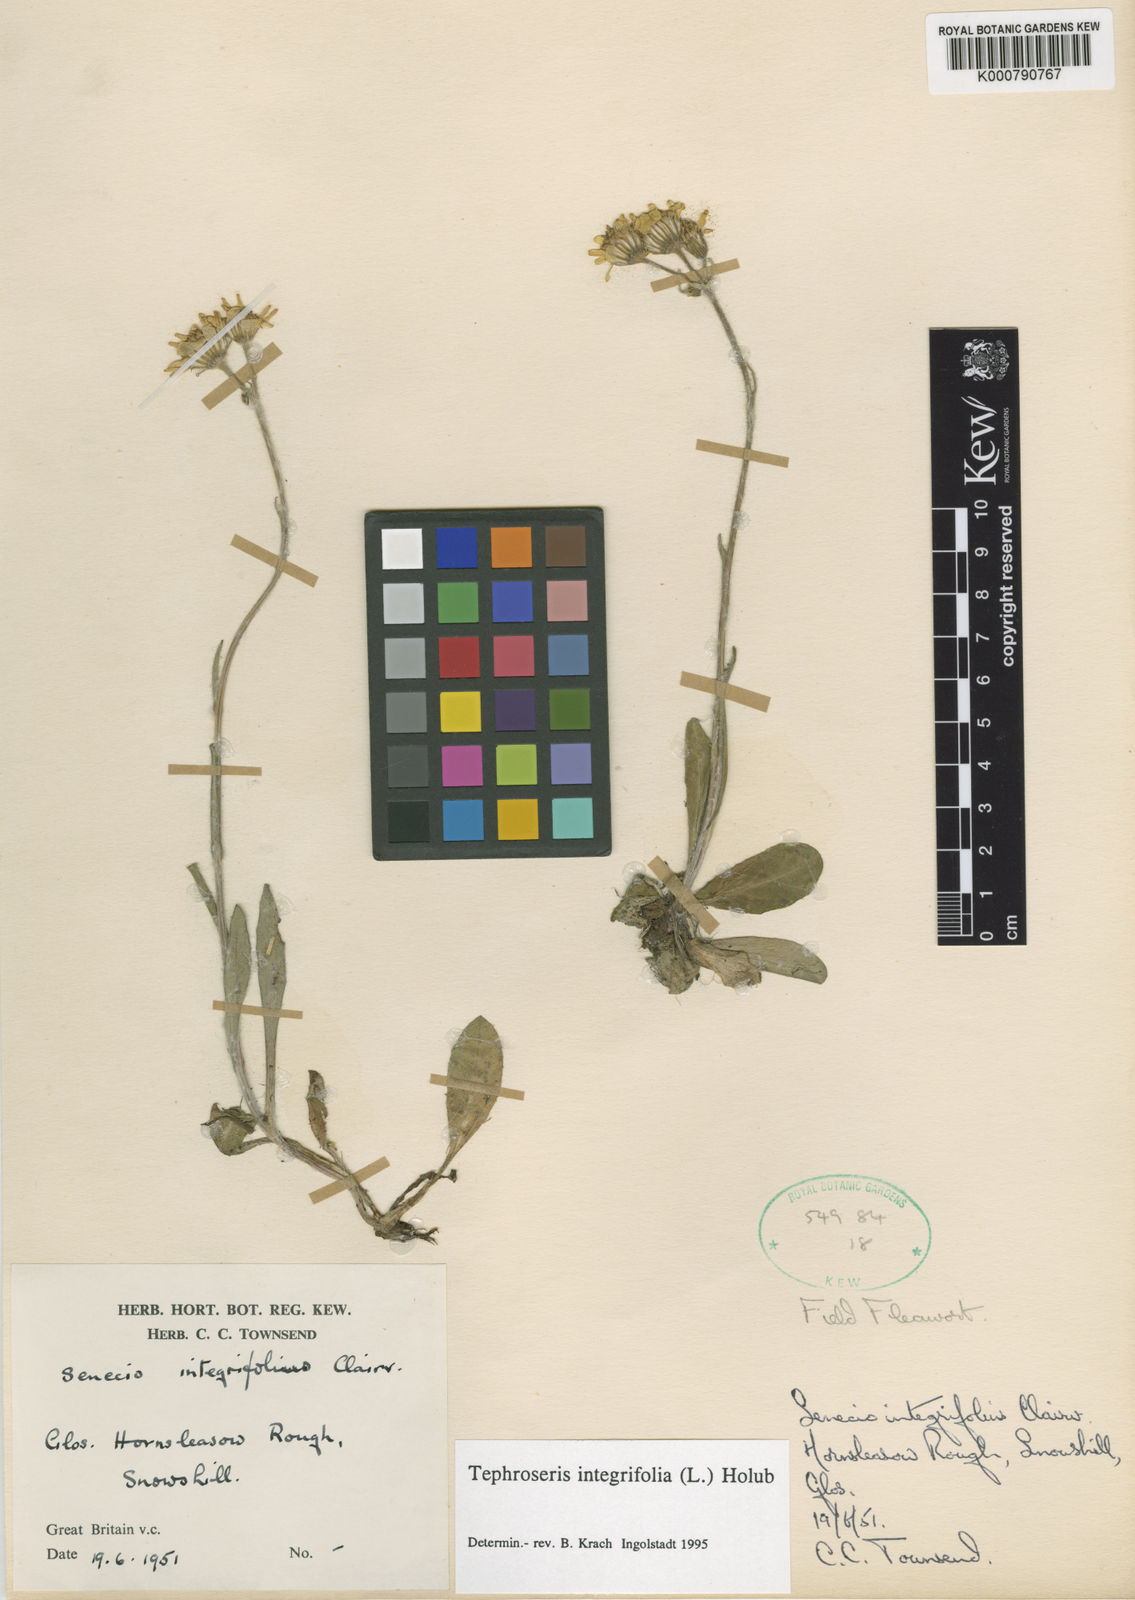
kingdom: Plantae
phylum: Tracheophyta
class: Magnoliopsida
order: Asterales
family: Asteraceae
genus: Tephroseris
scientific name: Tephroseris integrifolia
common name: Field fleawort
